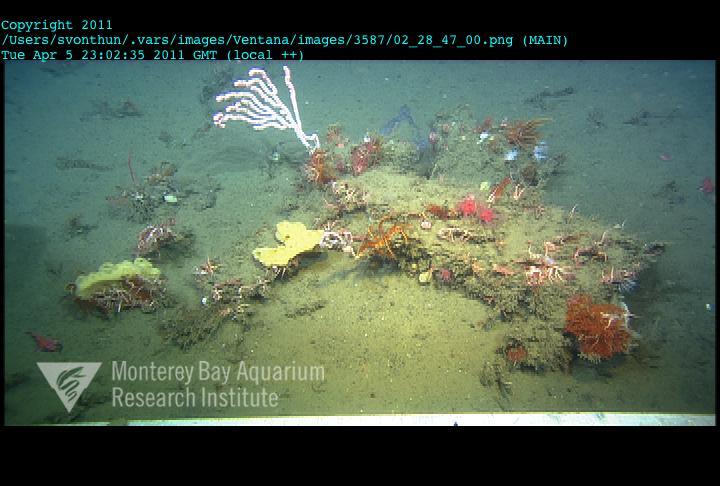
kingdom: Animalia
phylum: Porifera
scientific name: Porifera
